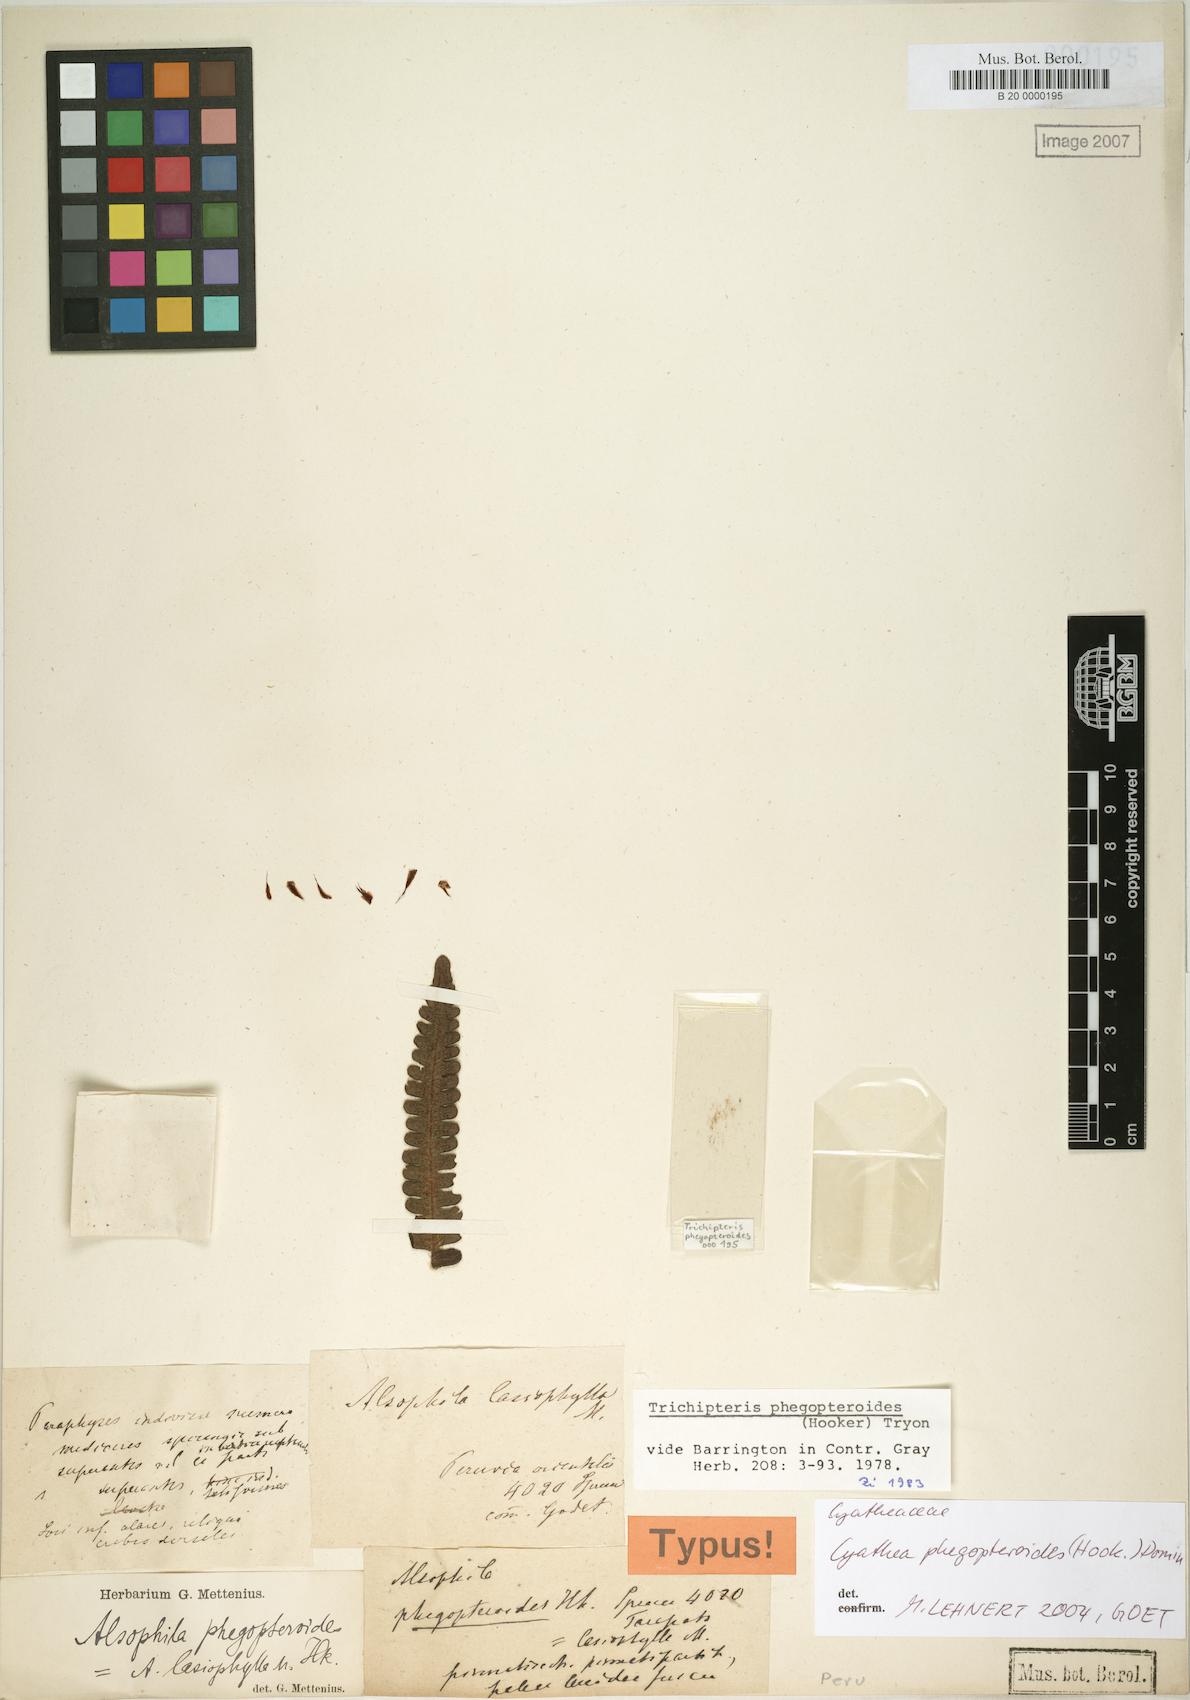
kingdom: Plantae
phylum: Tracheophyta
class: Polypodiopsida
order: Cyatheales
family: Cyatheaceae
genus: Cyathea
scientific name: Cyathea phegopteroides
